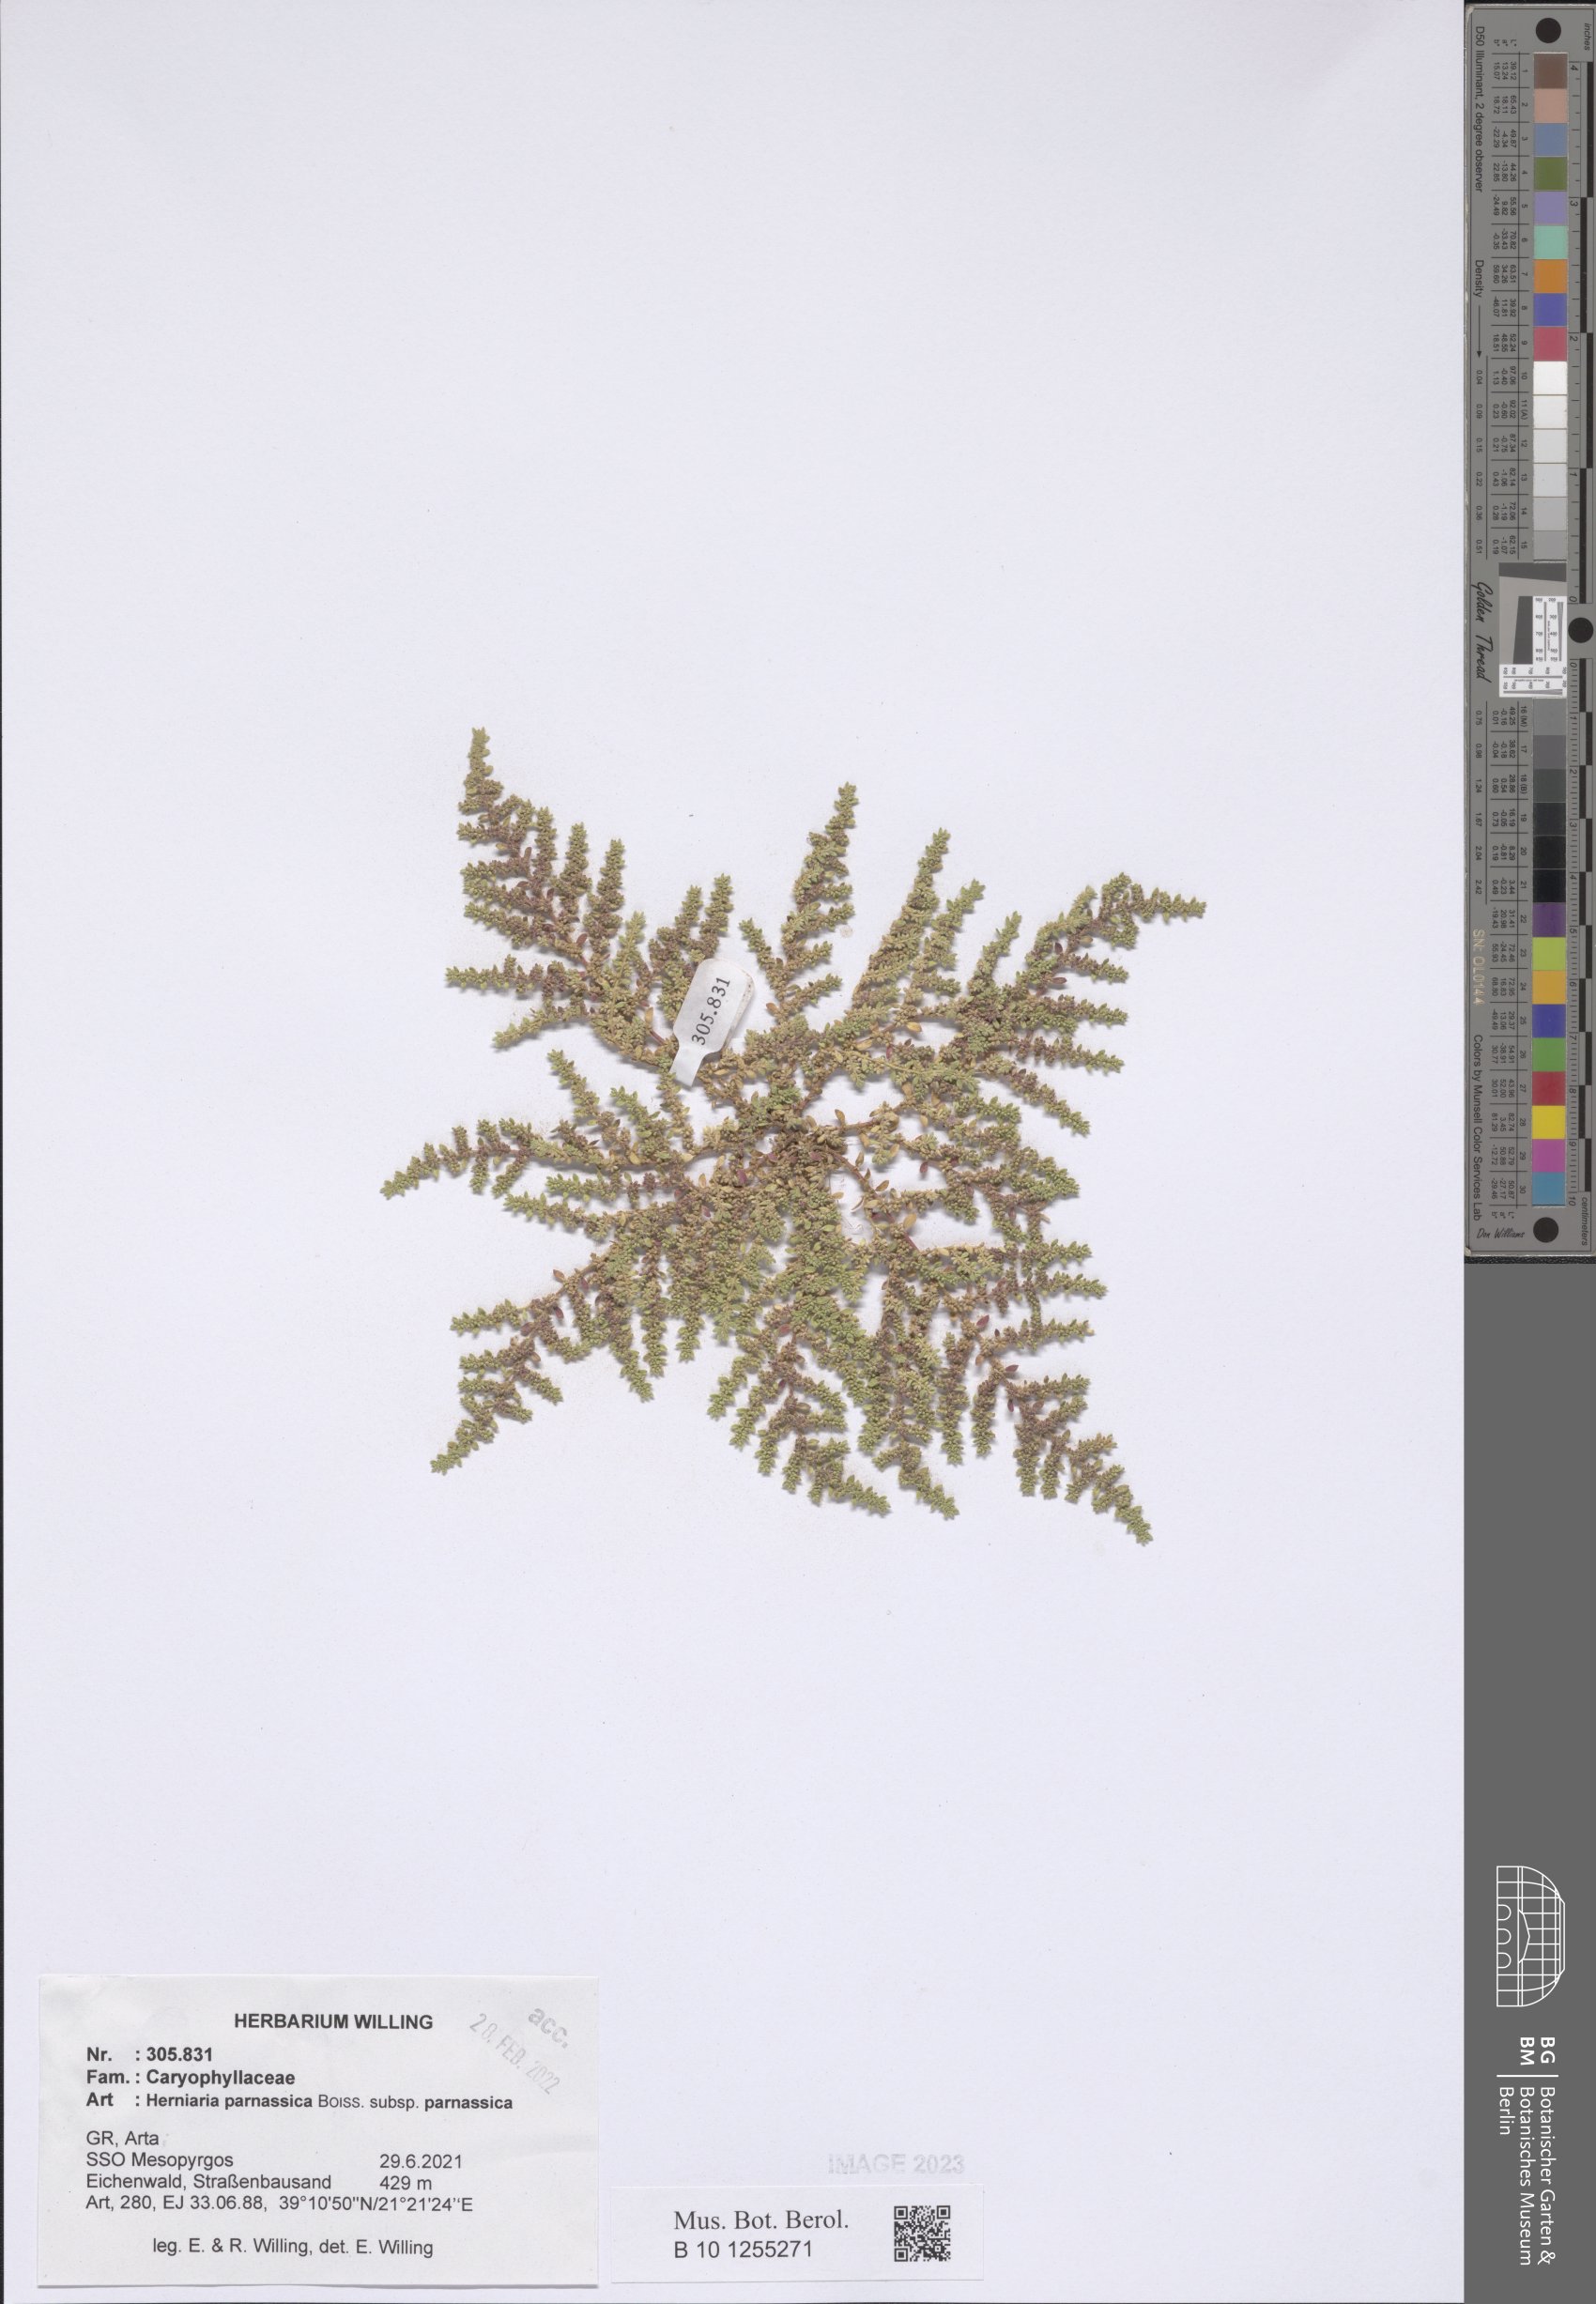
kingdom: Plantae
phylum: Tracheophyta
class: Magnoliopsida
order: Caryophyllales
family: Caryophyllaceae
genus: Herniaria
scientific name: Herniaria parnassica
